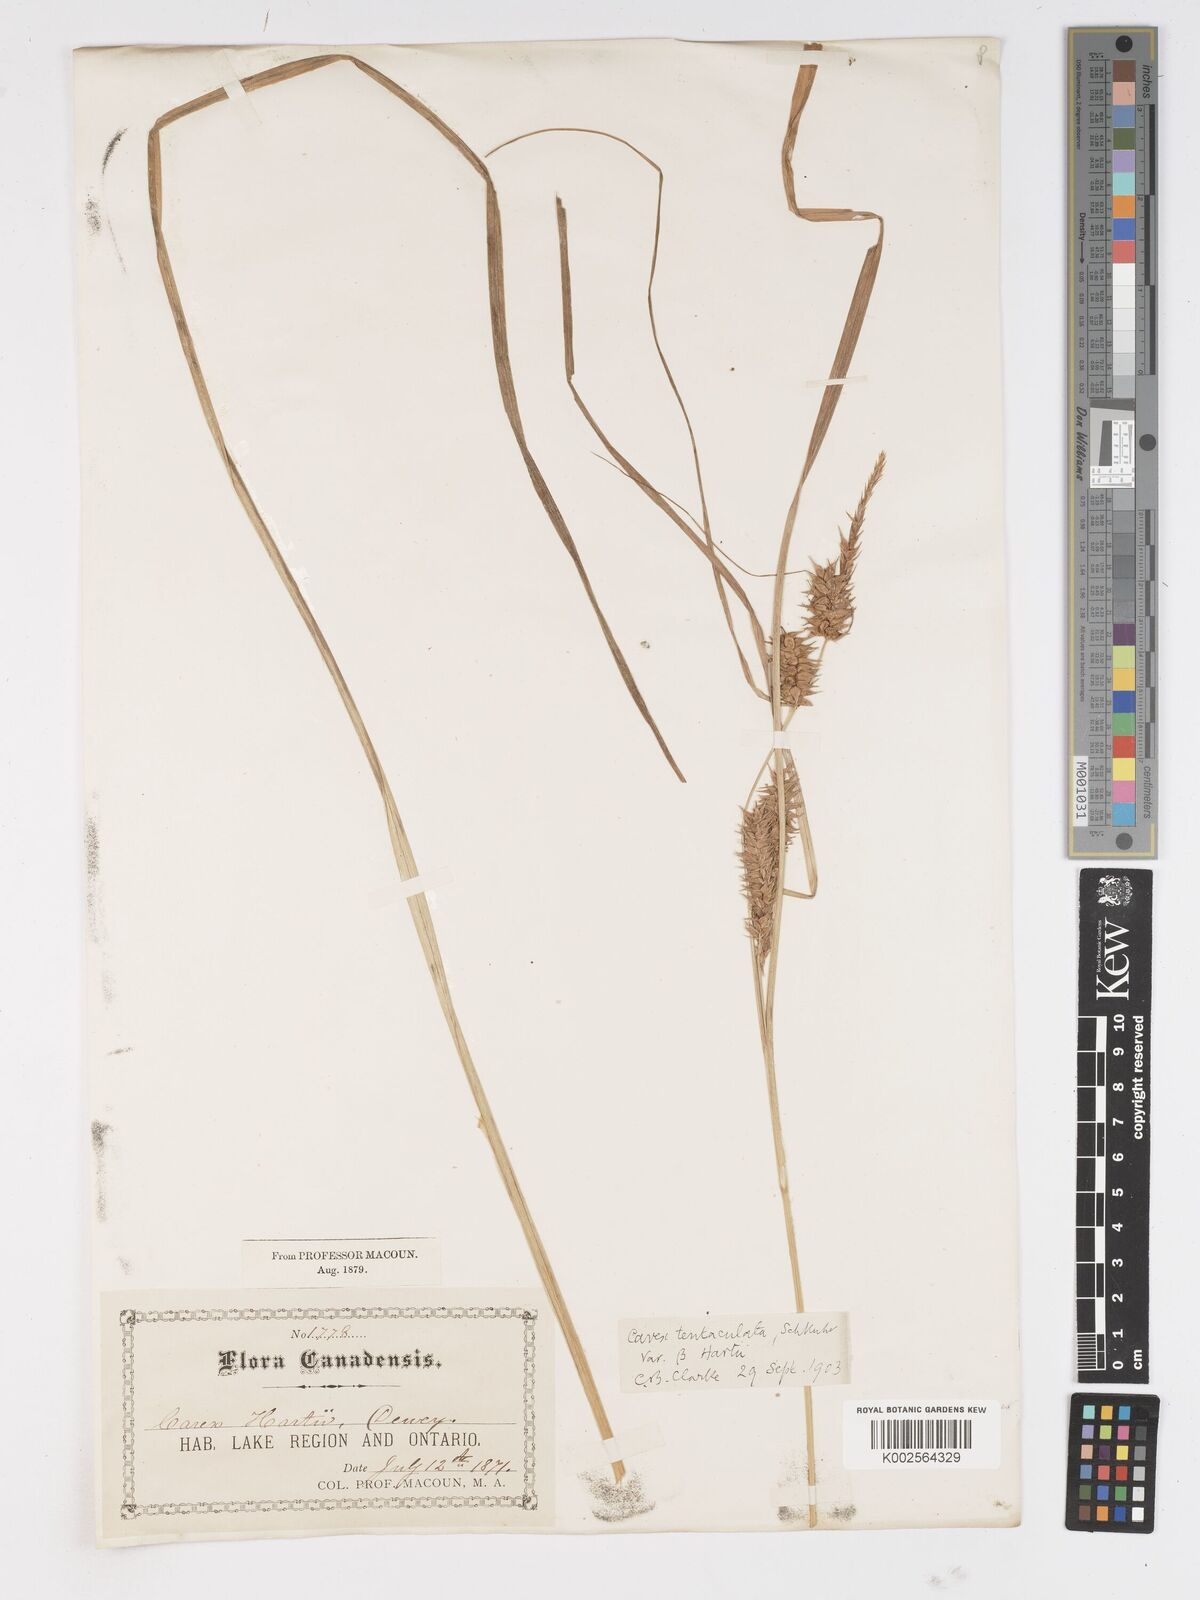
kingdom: Plantae
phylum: Tracheophyta
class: Liliopsida
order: Poales
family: Cyperaceae
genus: Carex
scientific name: Carex lurida
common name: Sallow sedge
